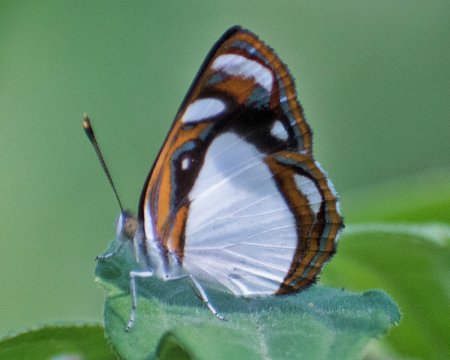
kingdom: Animalia
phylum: Arthropoda
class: Insecta
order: Lepidoptera
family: Nymphalidae
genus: Dynamine
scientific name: Dynamine theseus
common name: White Sailor
